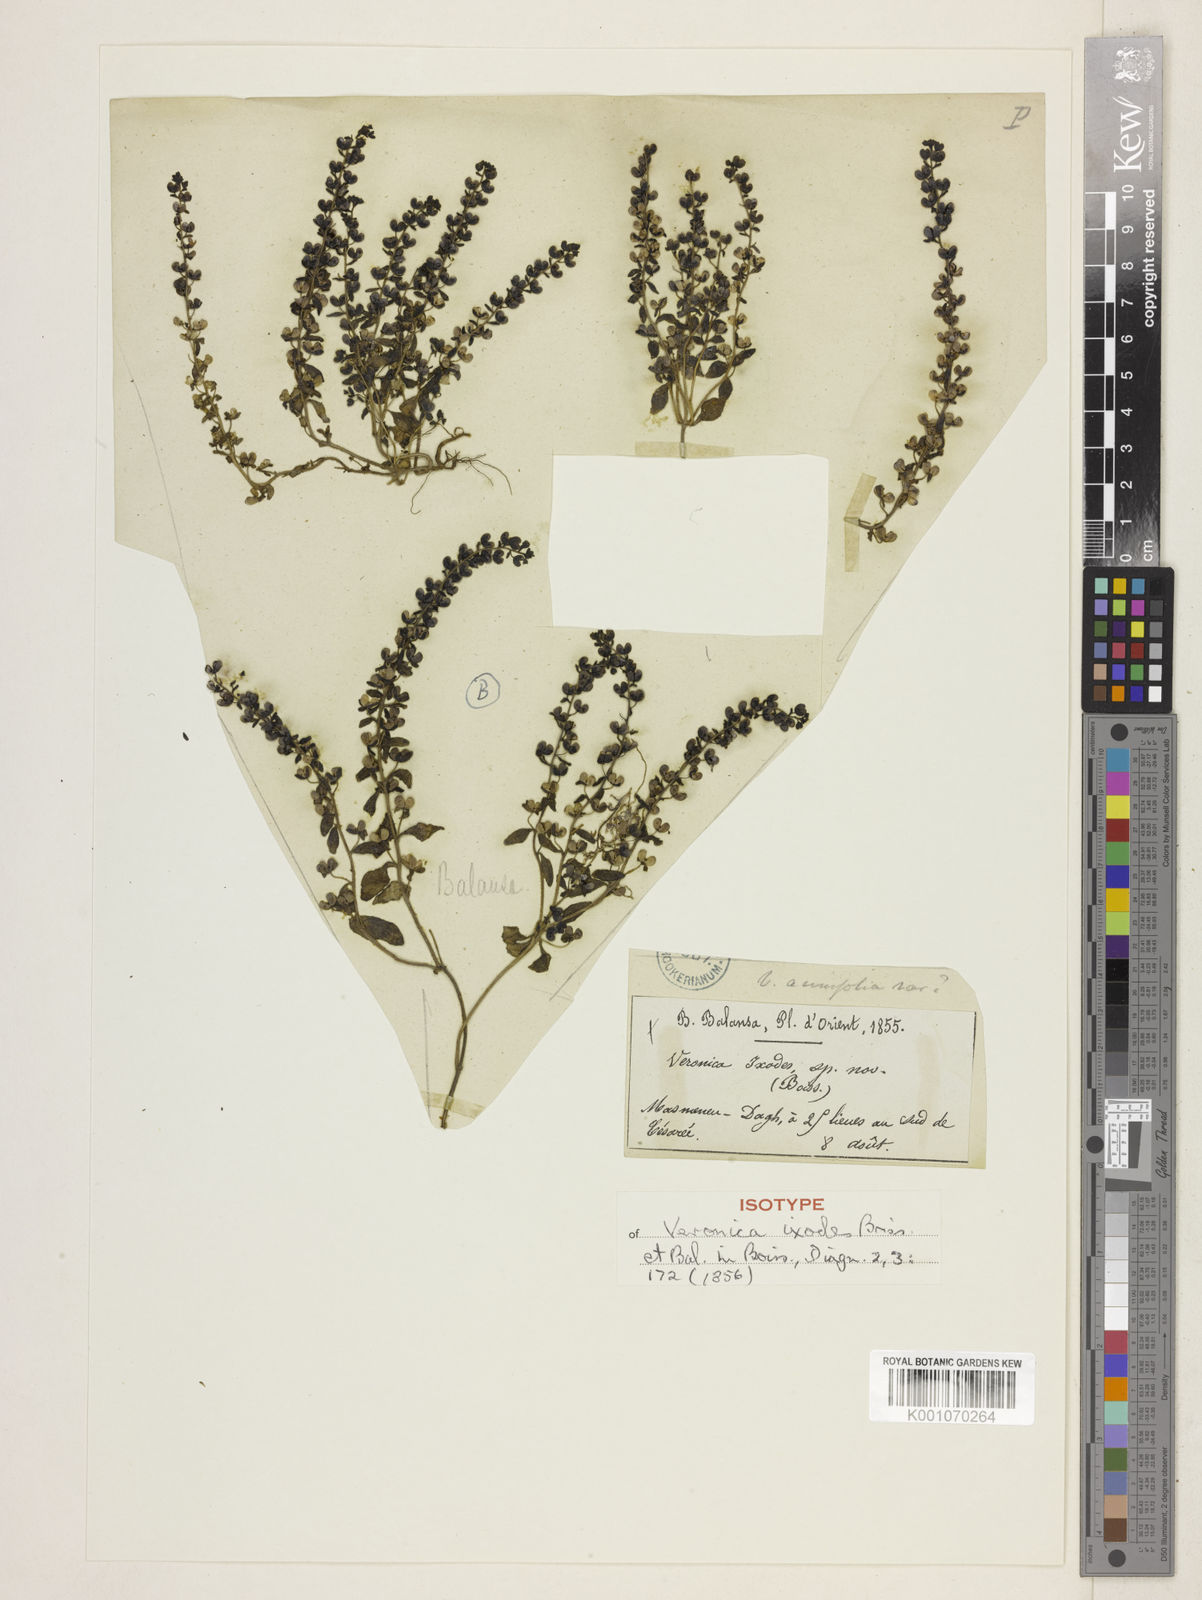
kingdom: Plantae
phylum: Tracheophyta
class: Magnoliopsida
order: Lamiales
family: Plantaginaceae
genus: Veronica
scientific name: Veronica hispidula
